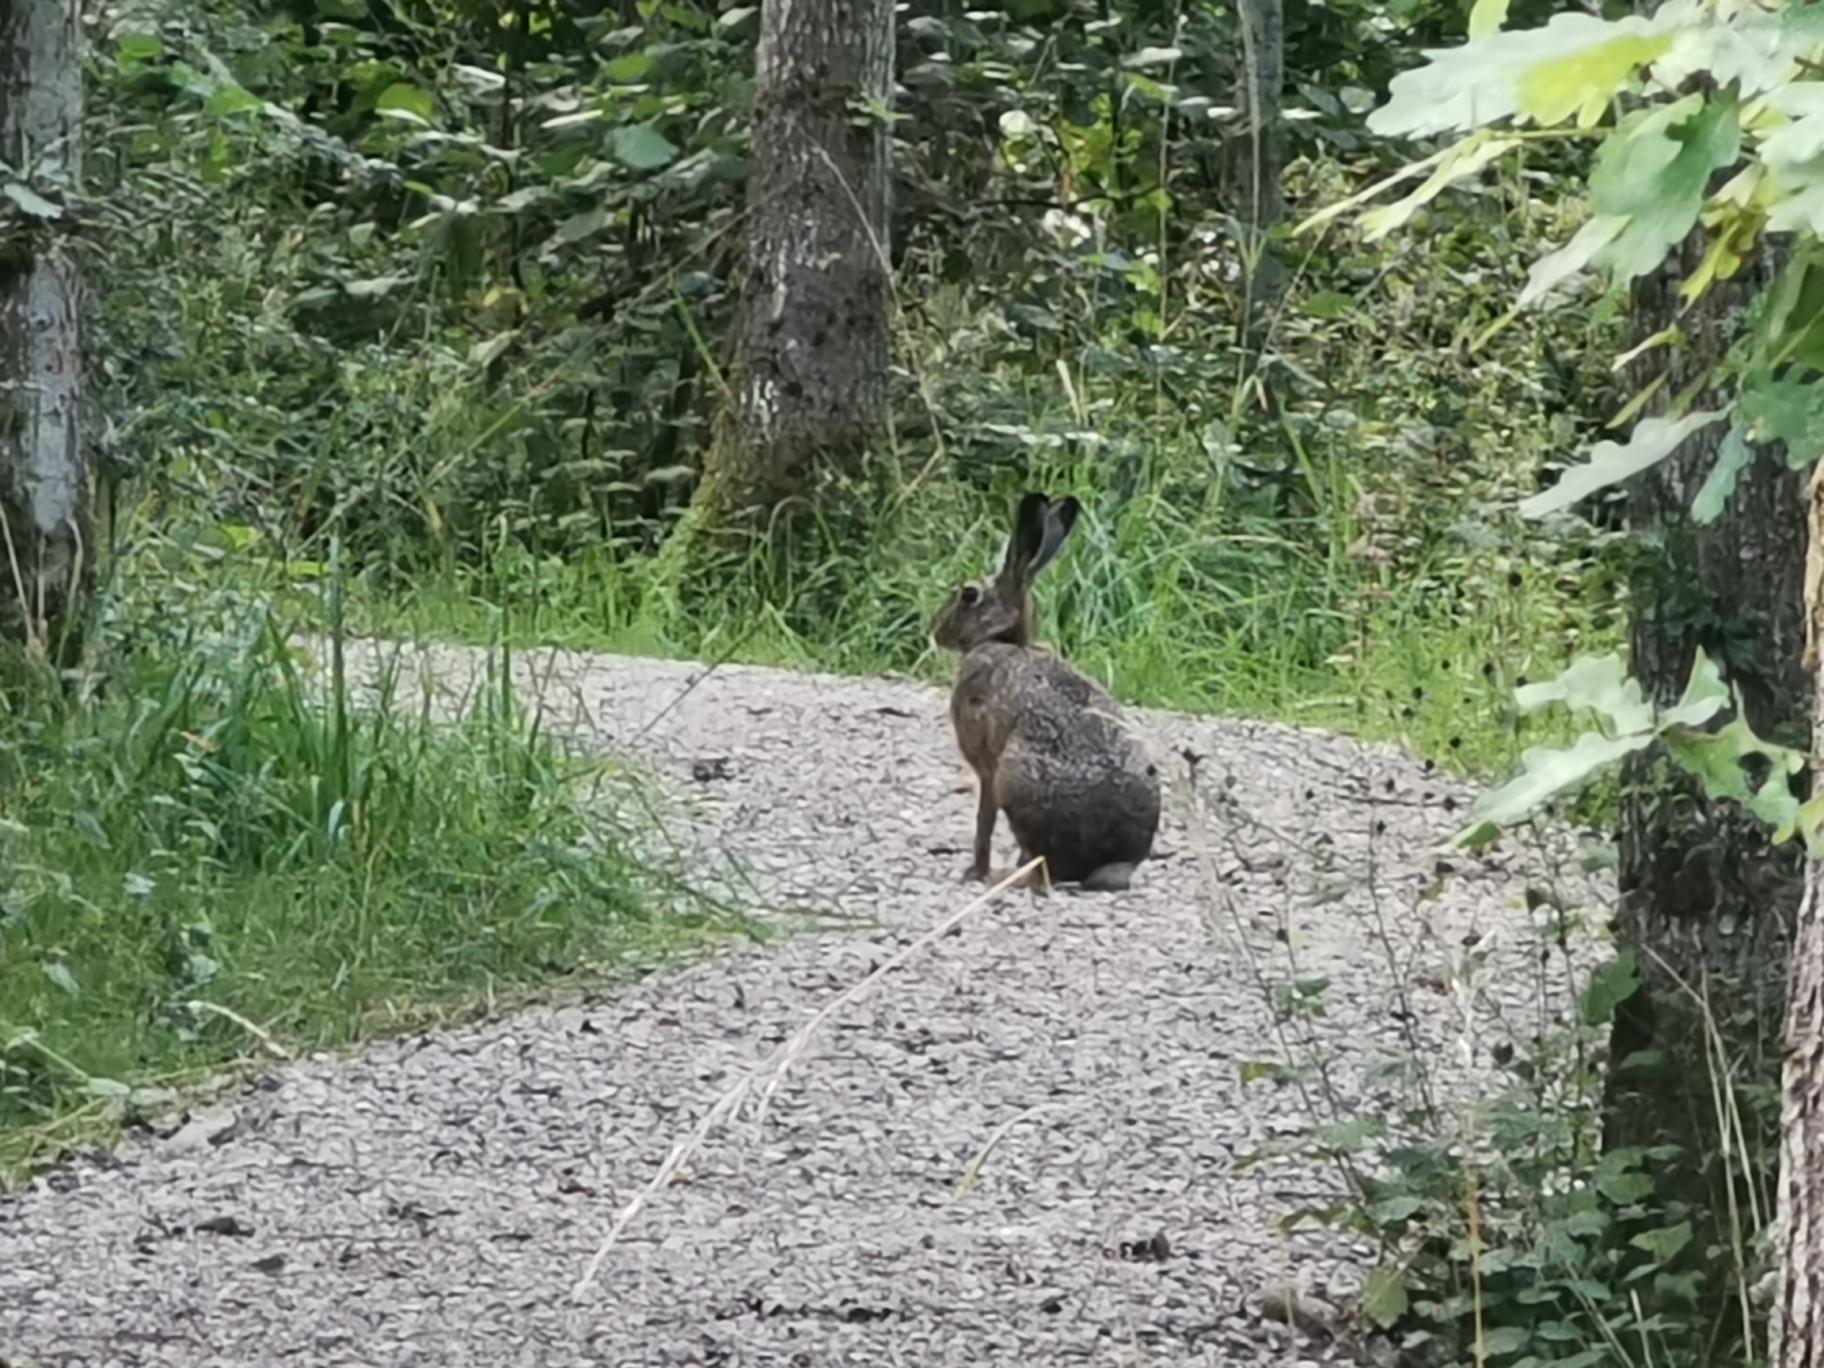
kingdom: Animalia
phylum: Chordata
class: Mammalia
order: Lagomorpha
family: Leporidae
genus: Lepus
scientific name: Lepus europaeus
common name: Hare
